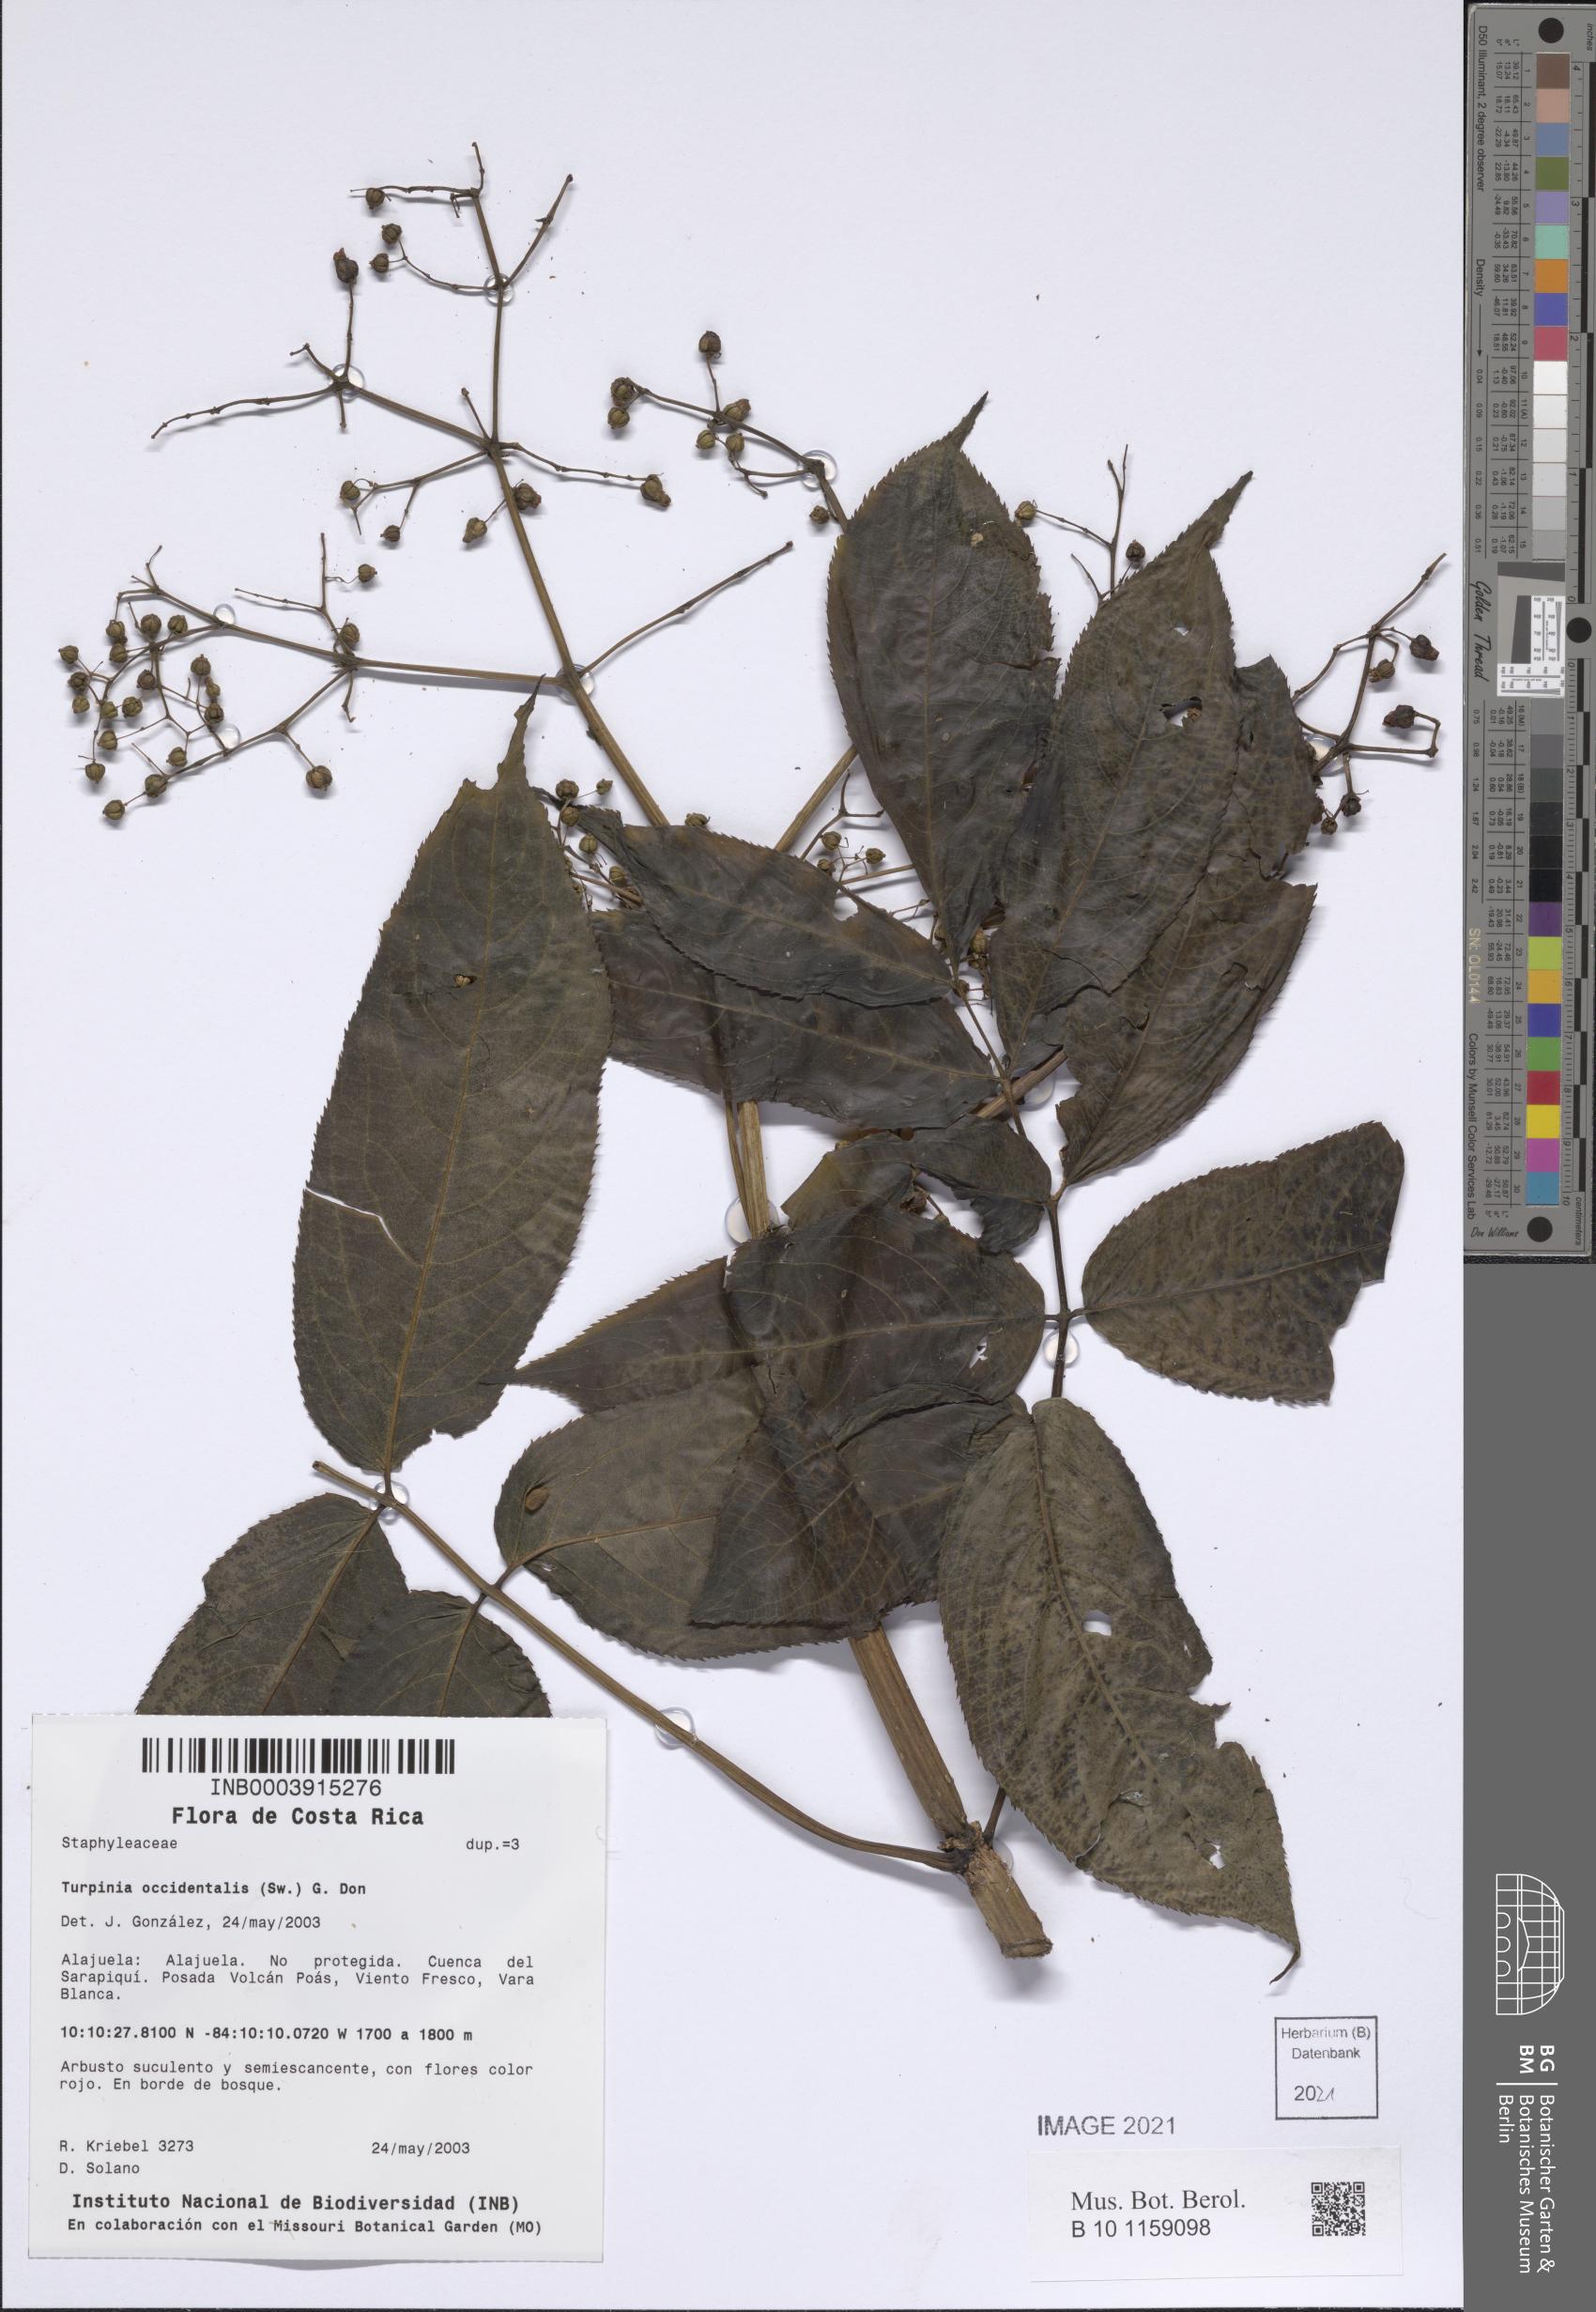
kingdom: Plantae
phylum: Tracheophyta
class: Magnoliopsida
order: Dipsacales
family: Viburnaceae
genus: Sambucus
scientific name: Sambucus
